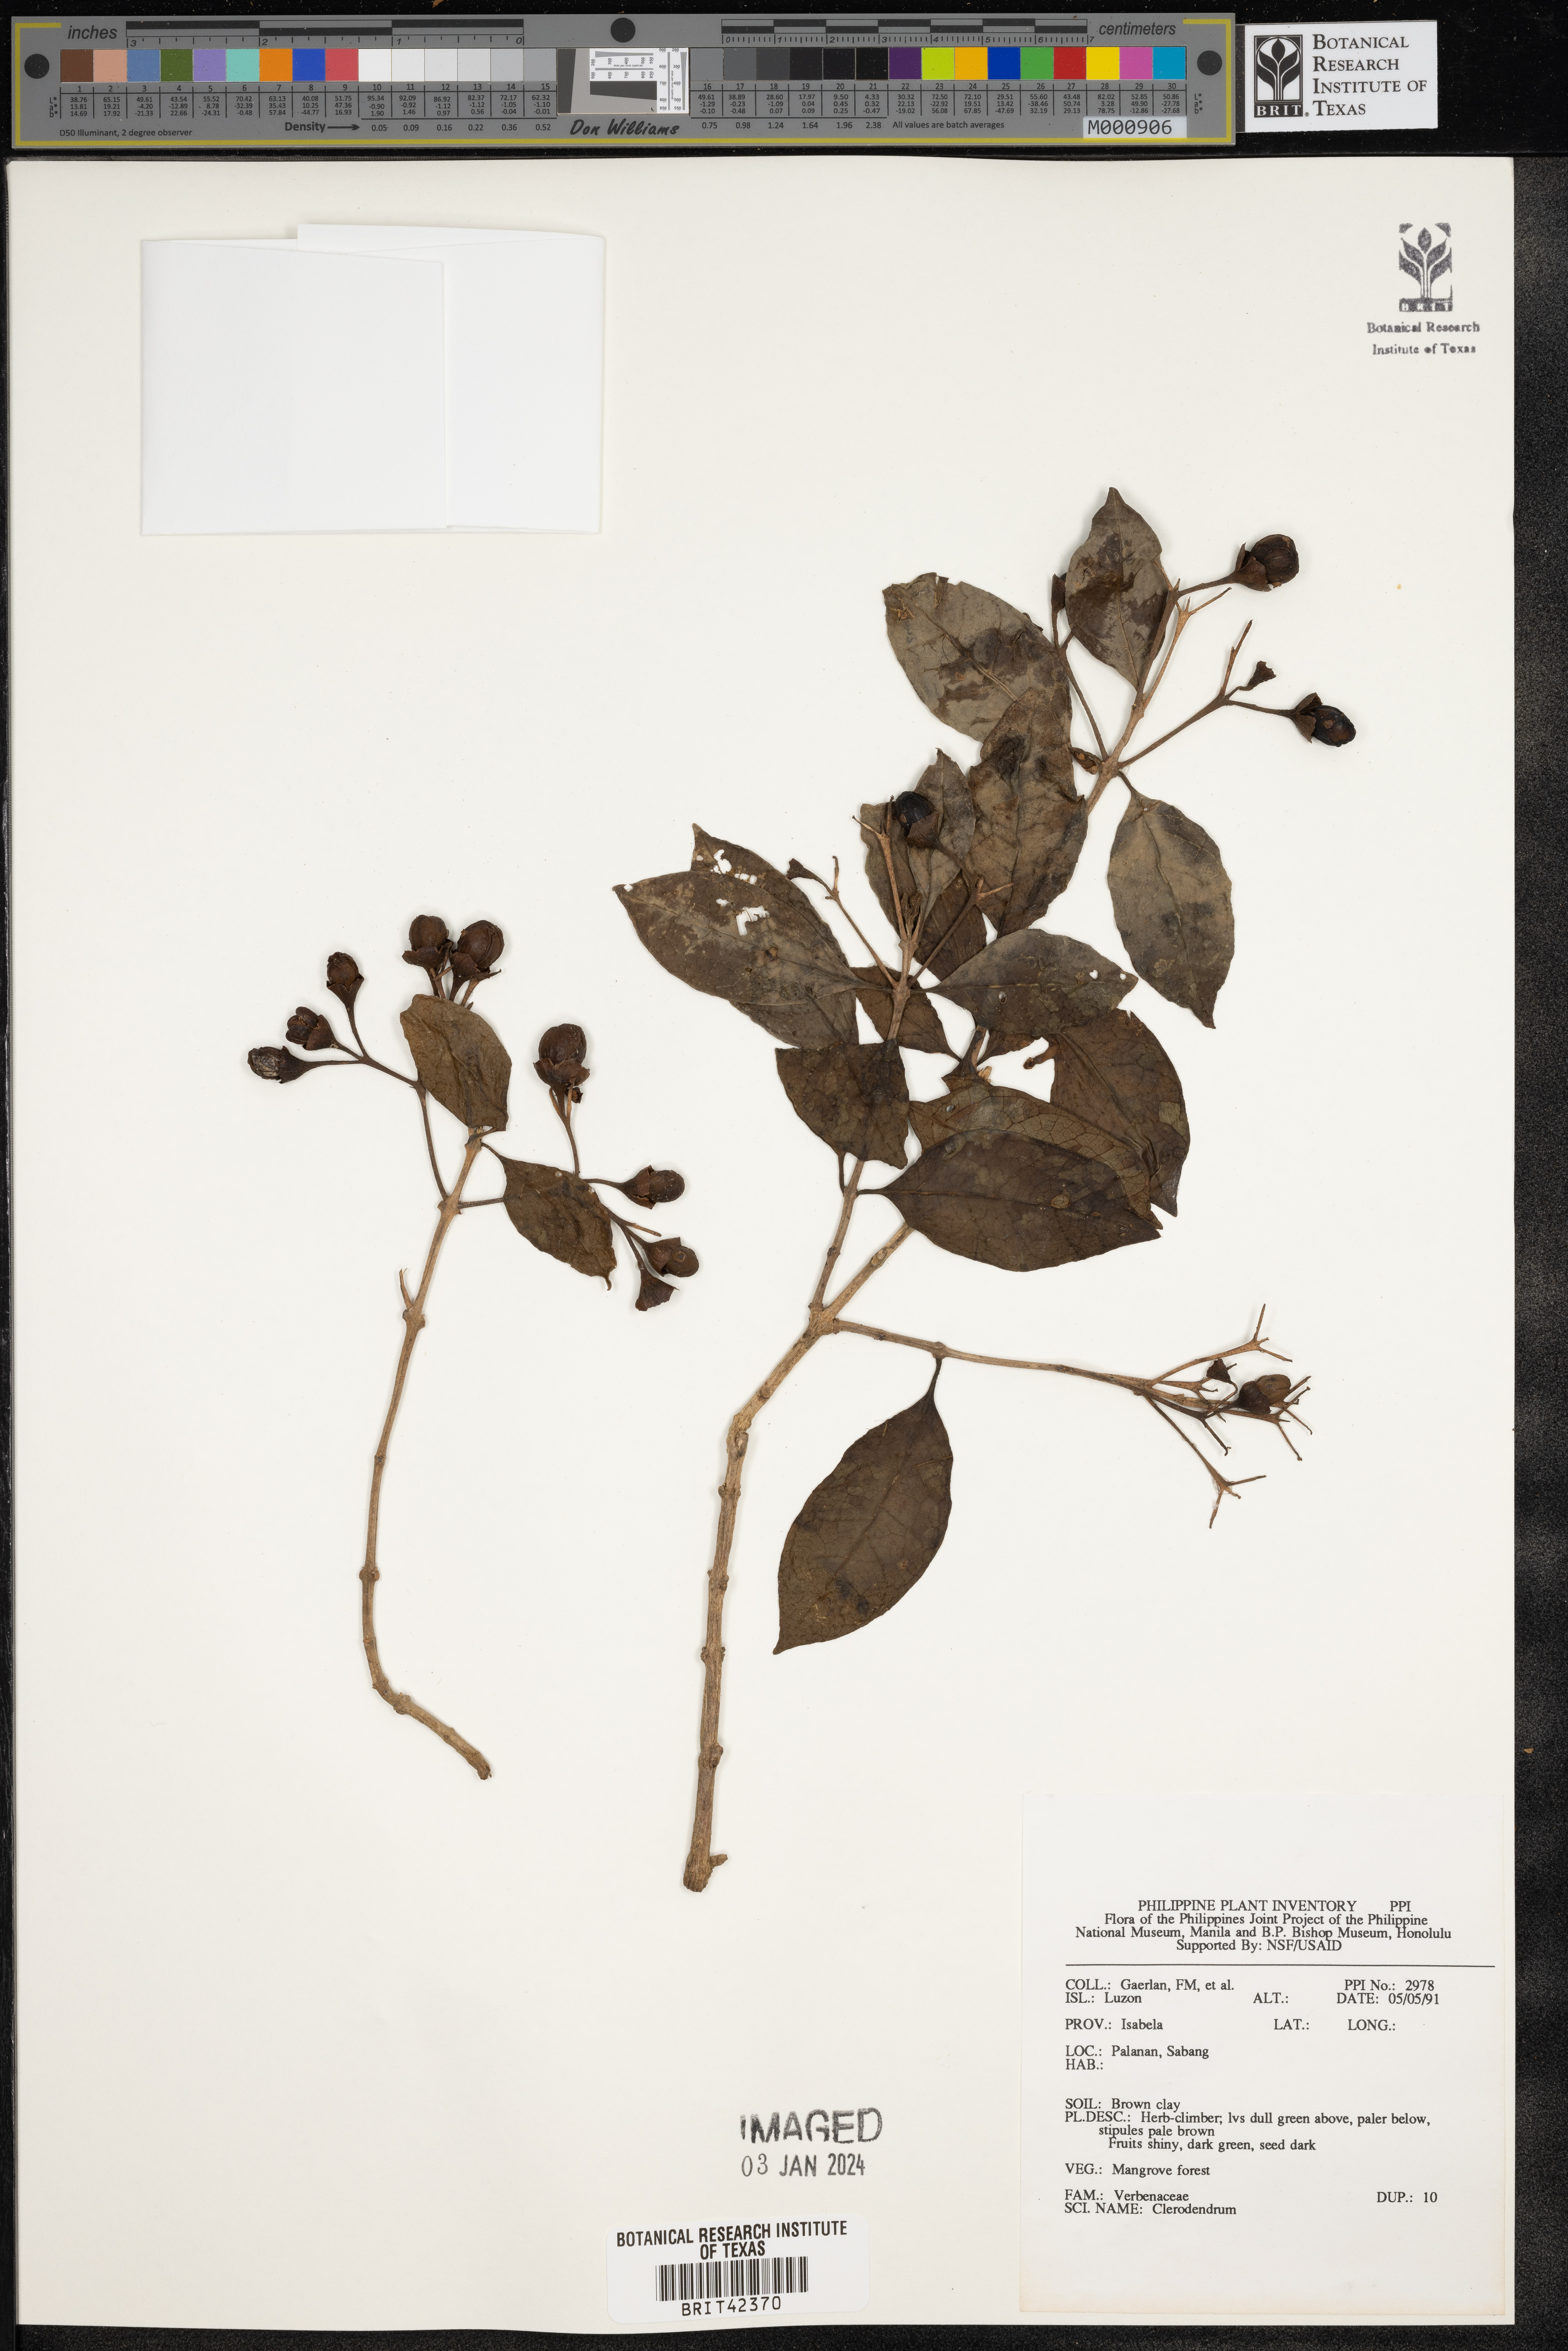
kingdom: Plantae
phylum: Tracheophyta
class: Magnoliopsida
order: Lamiales
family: Lamiaceae
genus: Clerodendrum
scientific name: Clerodendrum
